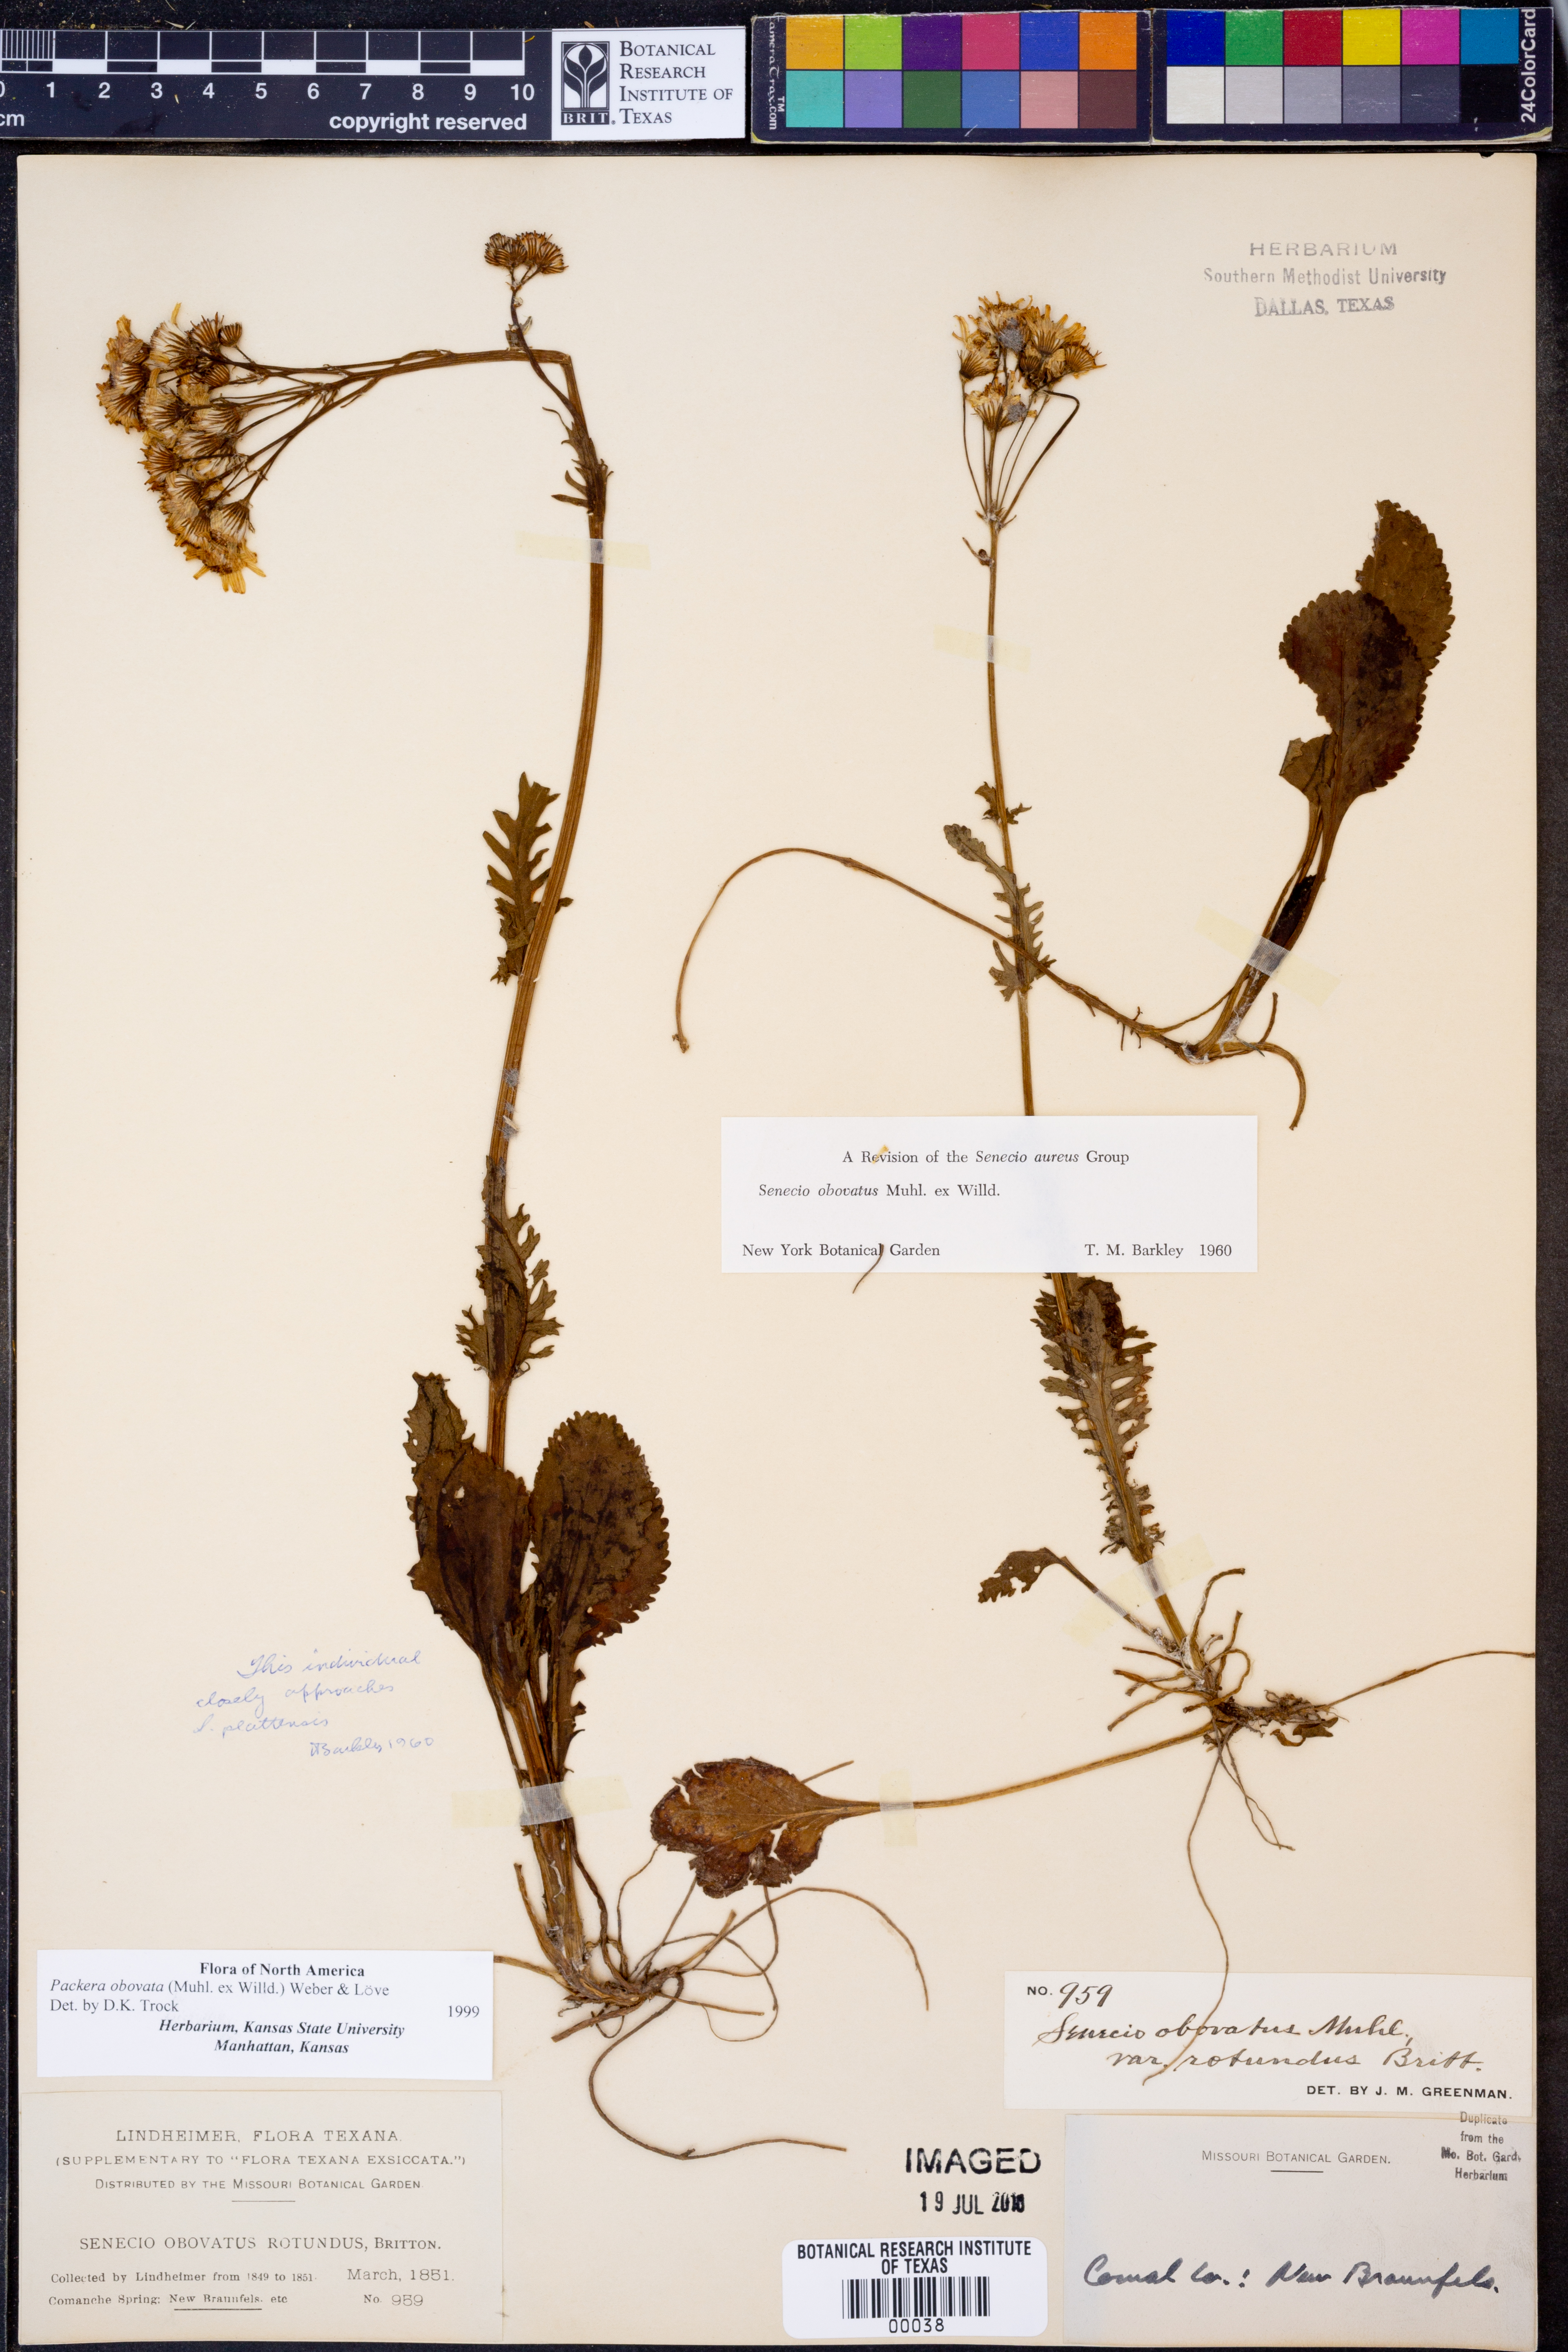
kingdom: Plantae
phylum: Tracheophyta
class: Magnoliopsida
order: Asterales
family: Asteraceae
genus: Packera
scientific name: Packera obovata
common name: Round-leaf ragwort
